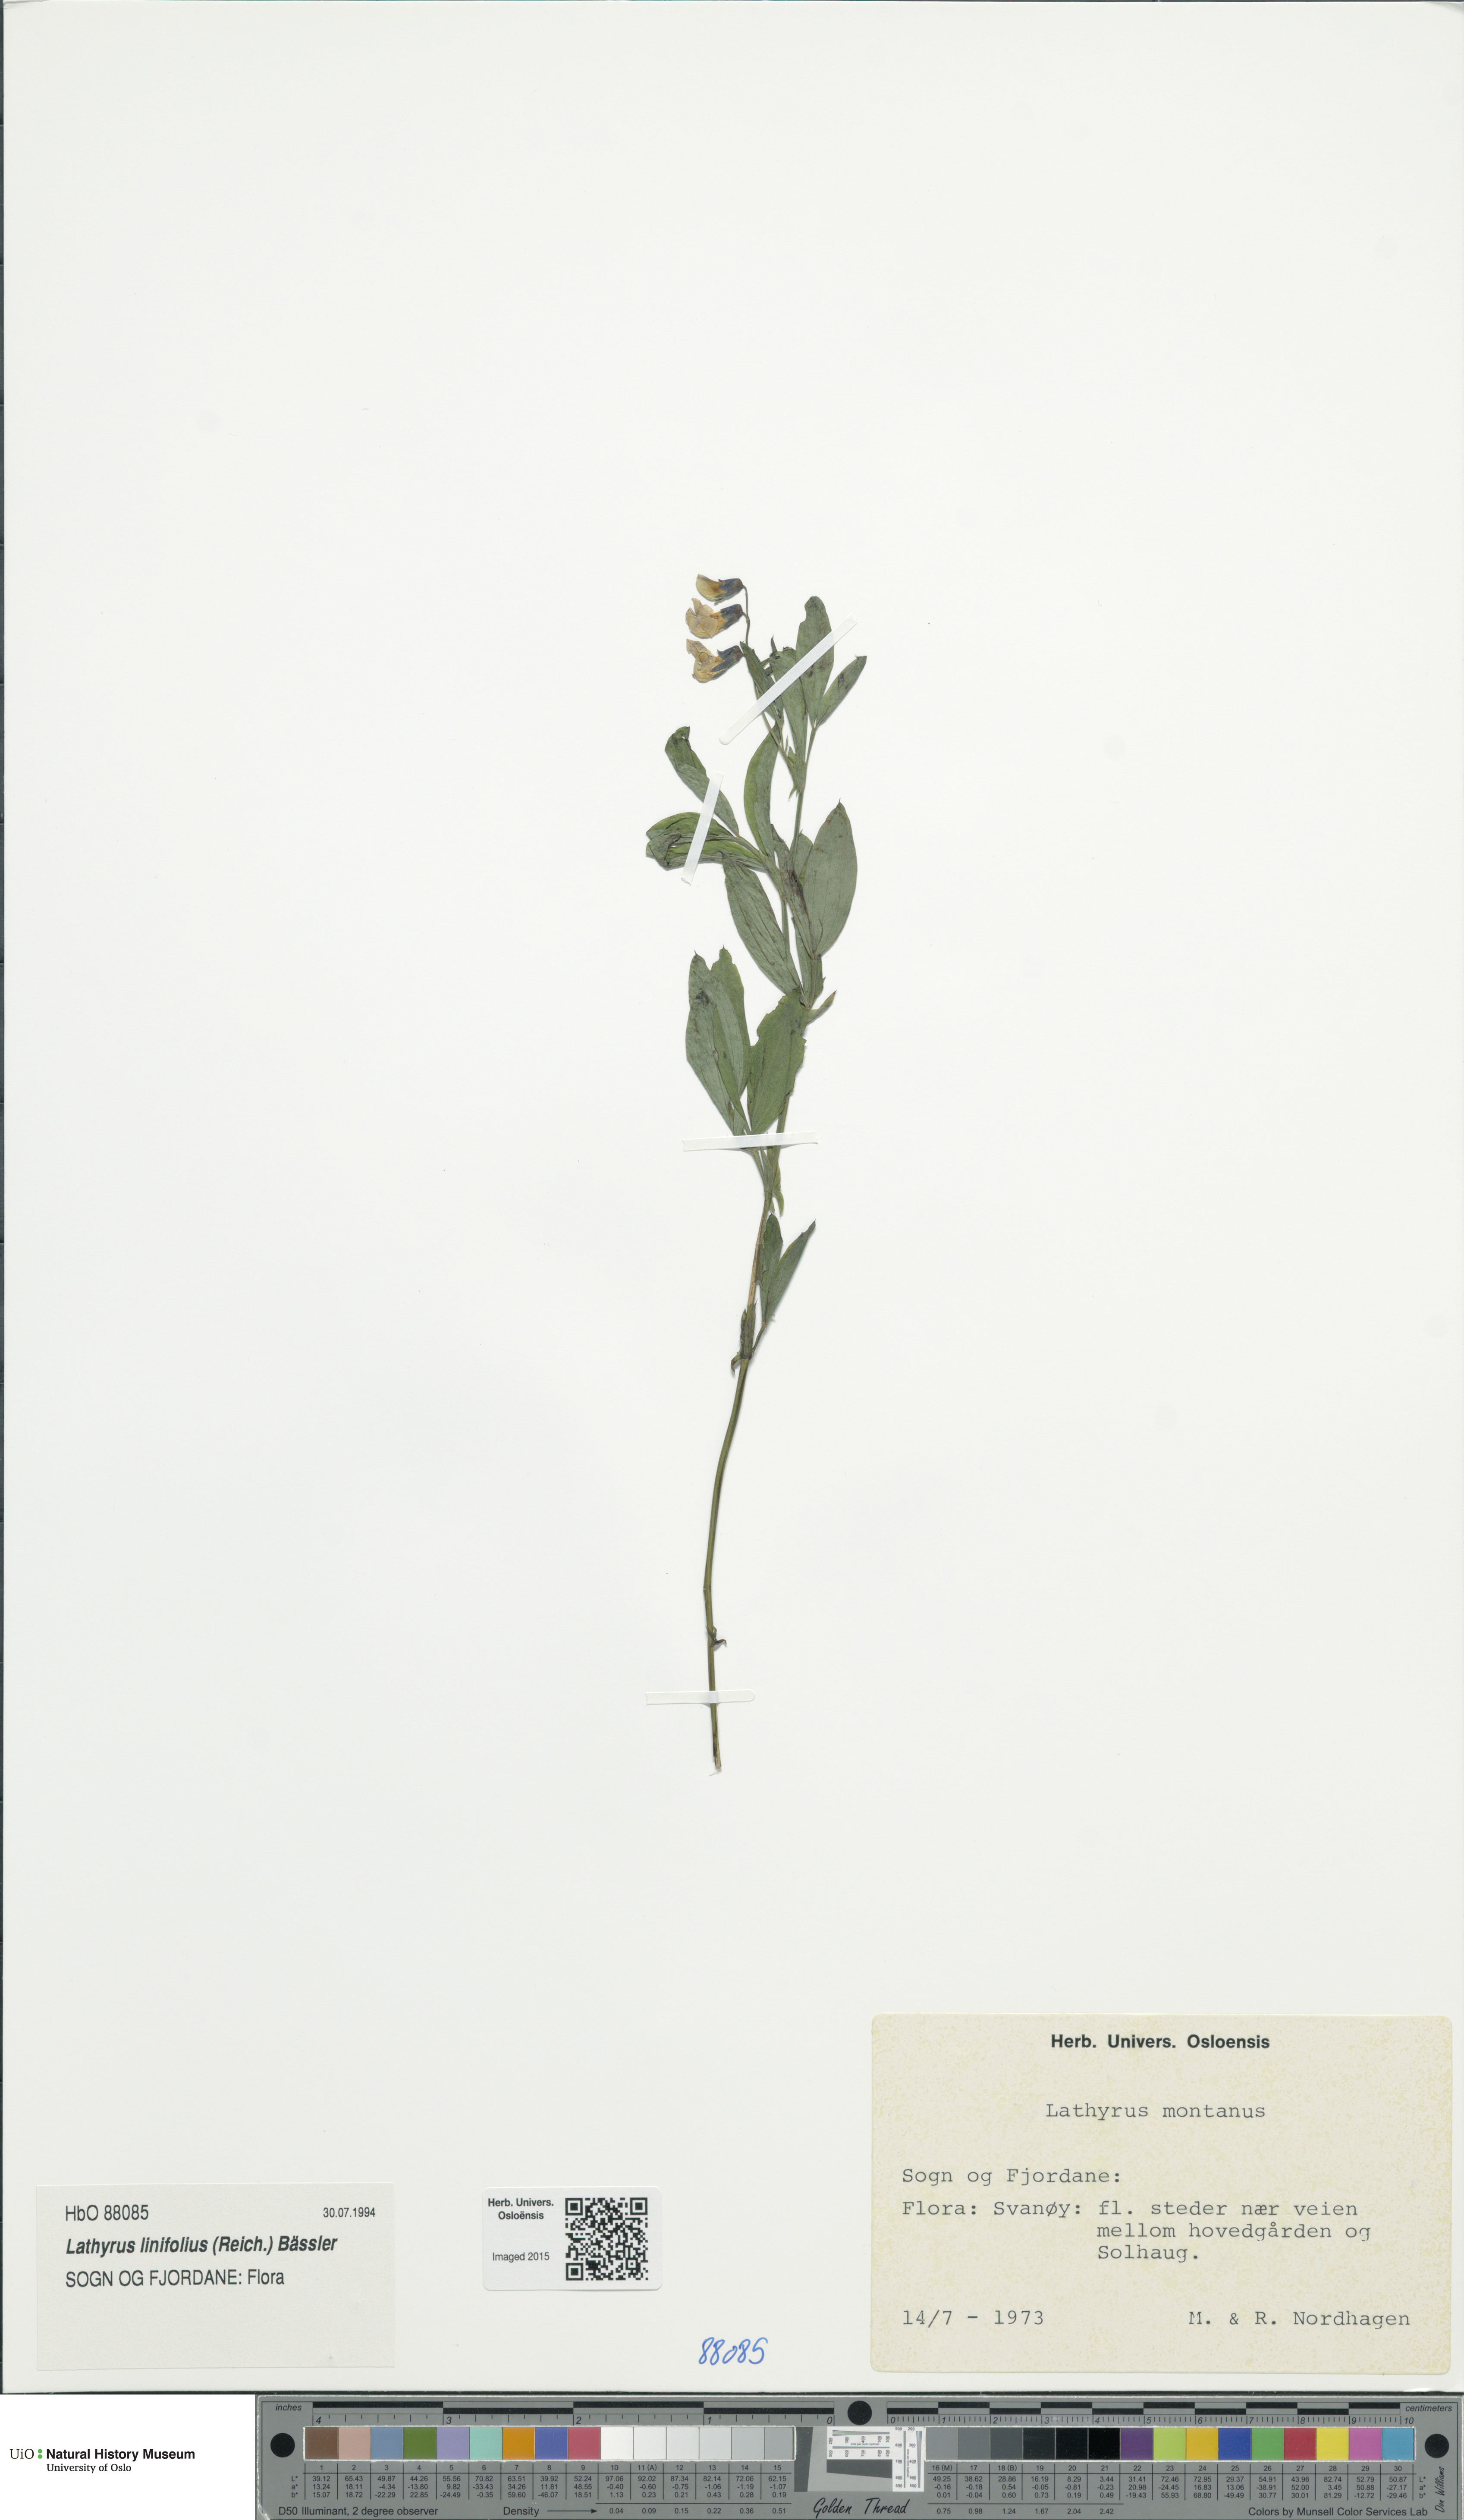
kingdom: Plantae
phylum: Tracheophyta
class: Magnoliopsida
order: Fabales
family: Fabaceae
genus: Lathyrus
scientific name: Lathyrus linifolius
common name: Bitter-vetch
